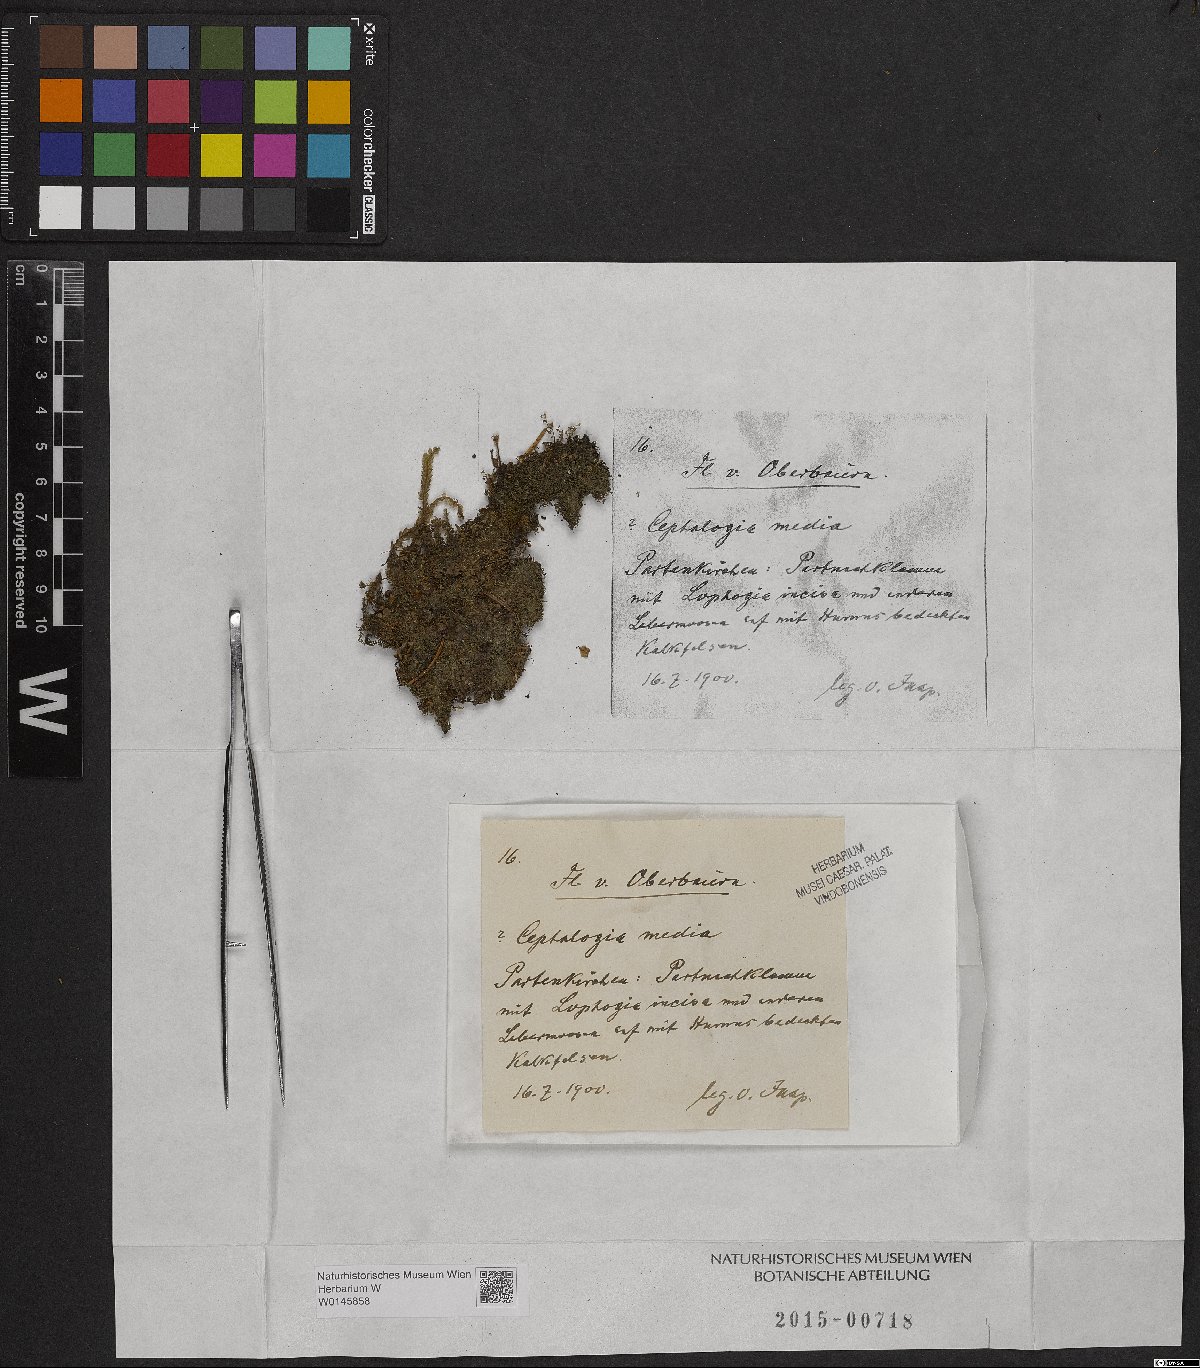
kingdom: Plantae
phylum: Marchantiophyta
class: Jungermanniopsida
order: Jungermanniales
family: Cephaloziaceae
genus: Fuscocephaloziopsis
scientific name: Fuscocephaloziopsis lunulifolia
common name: Moon-leaved pincerwort
